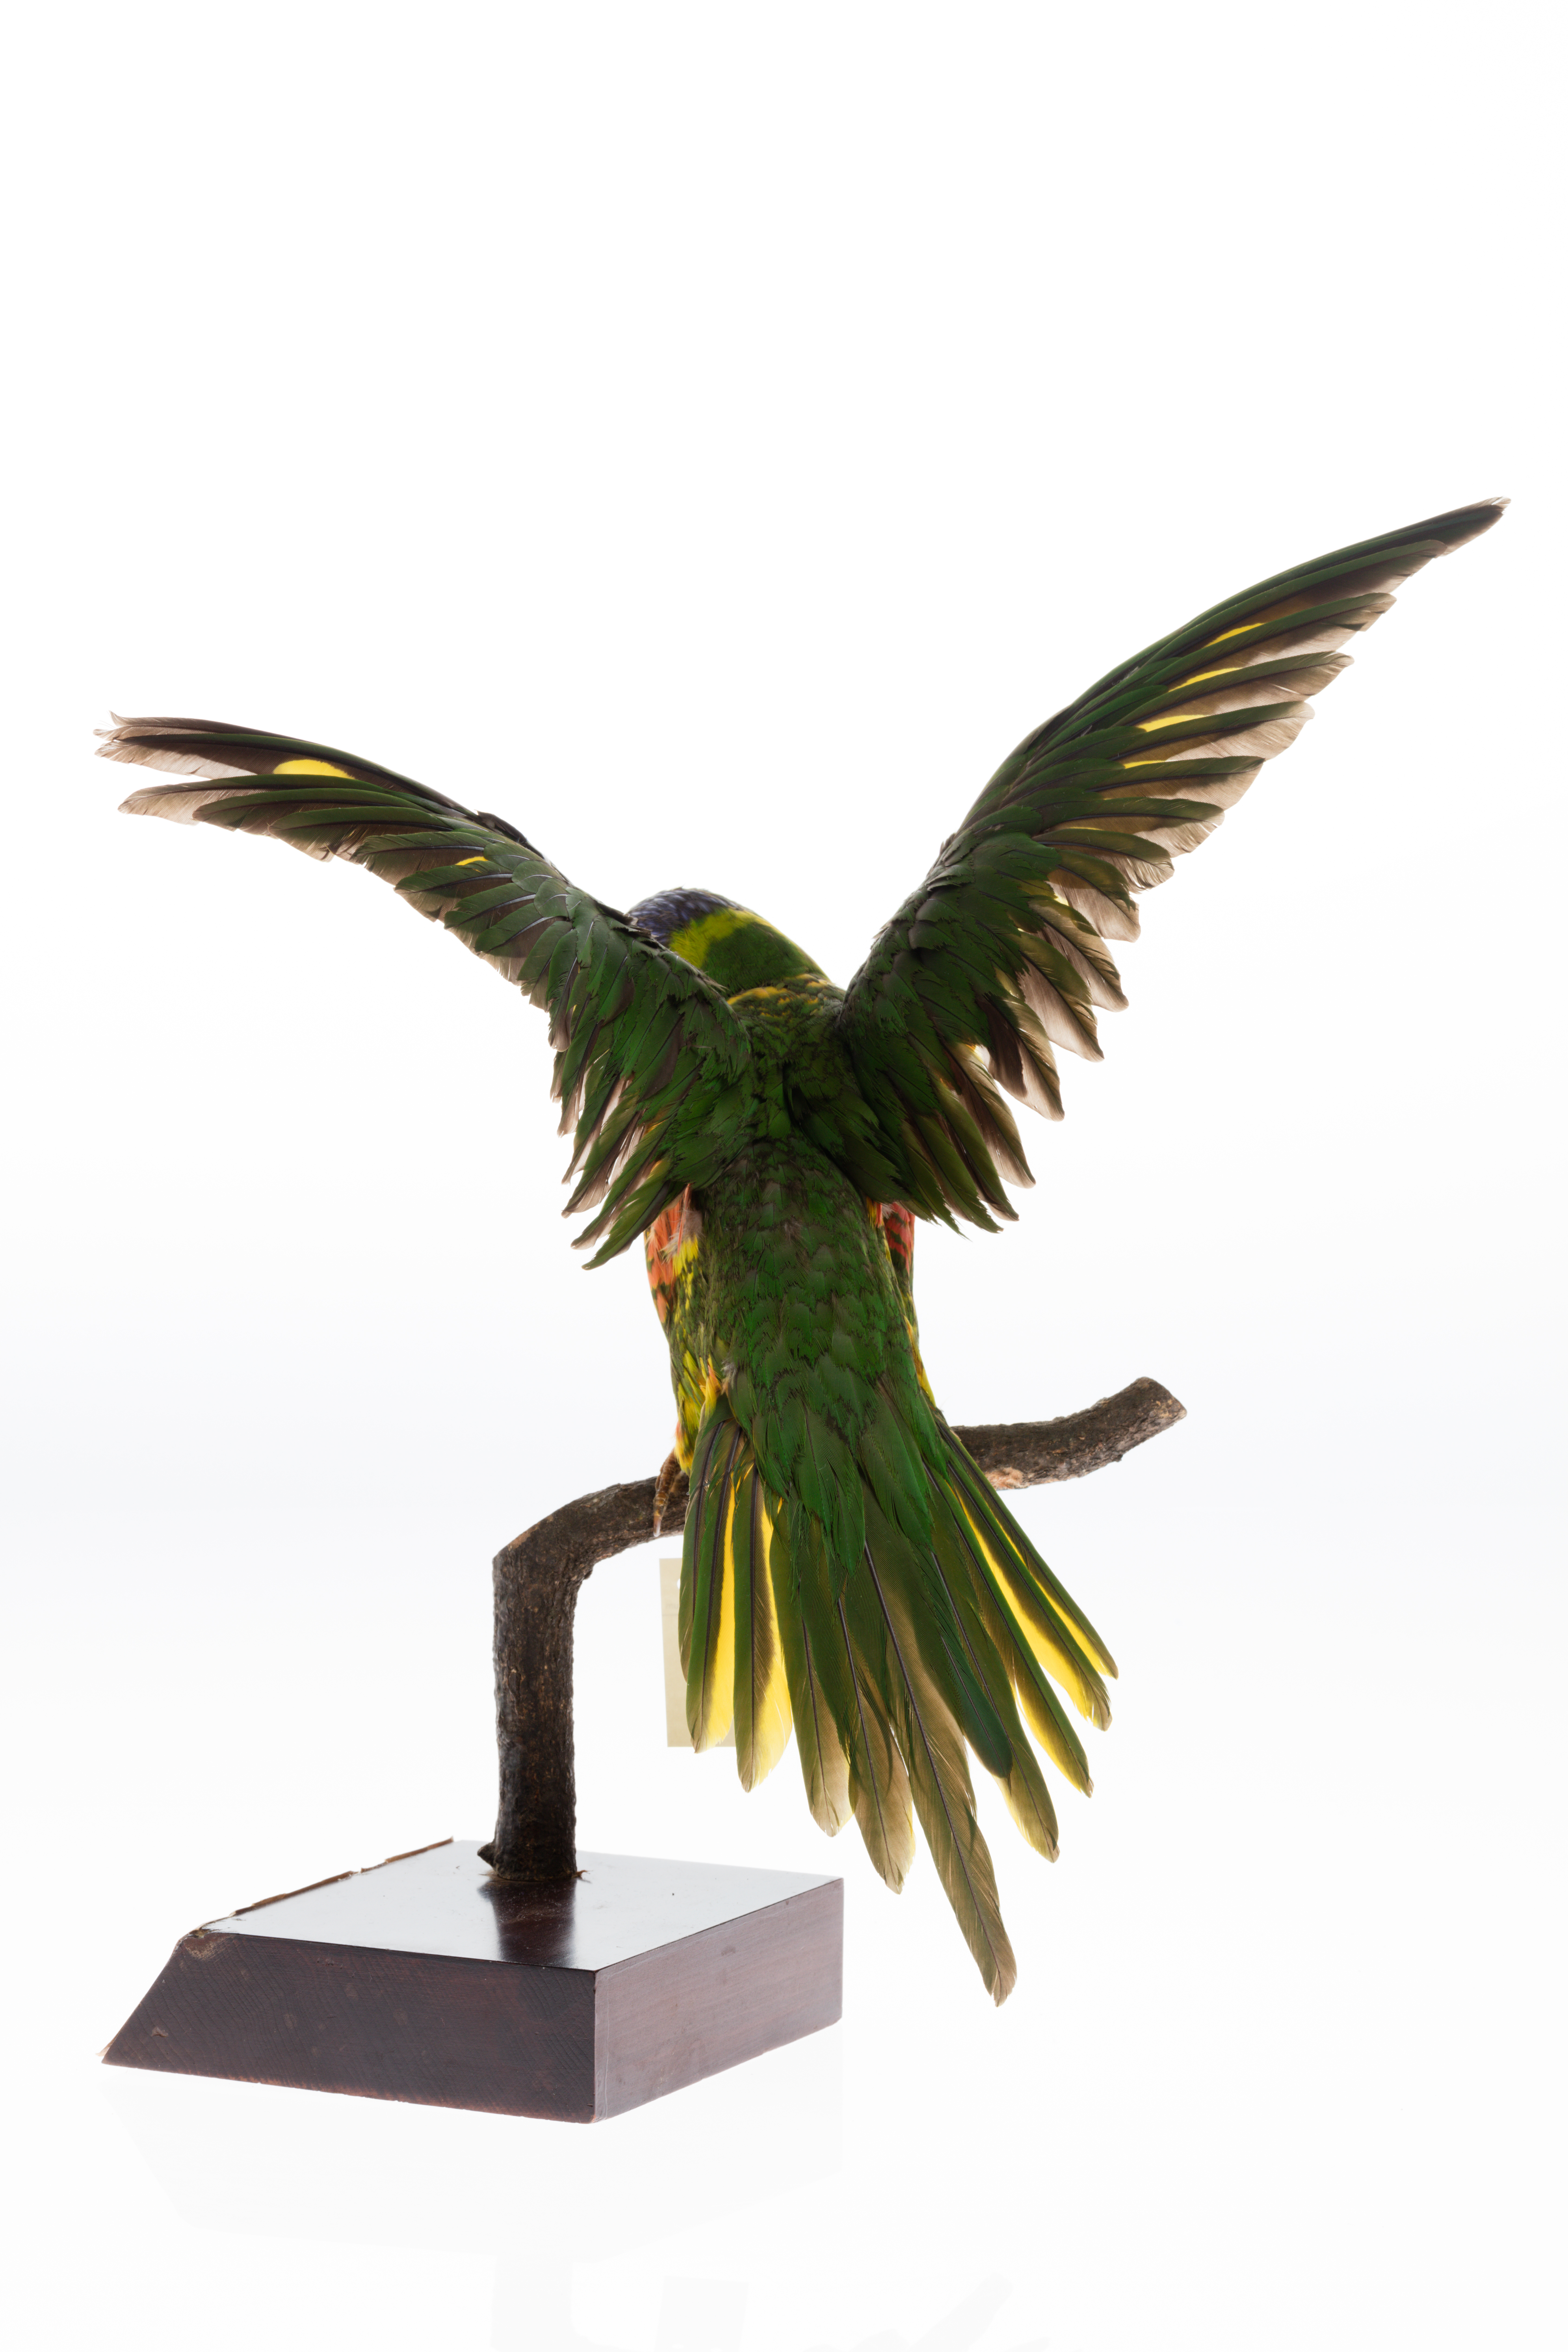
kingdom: Animalia
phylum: Chordata
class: Aves
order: Psittaciformes
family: Psittacidae
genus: Trichoglossus
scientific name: Trichoglossus haematodus
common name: Coconut lorikeet
